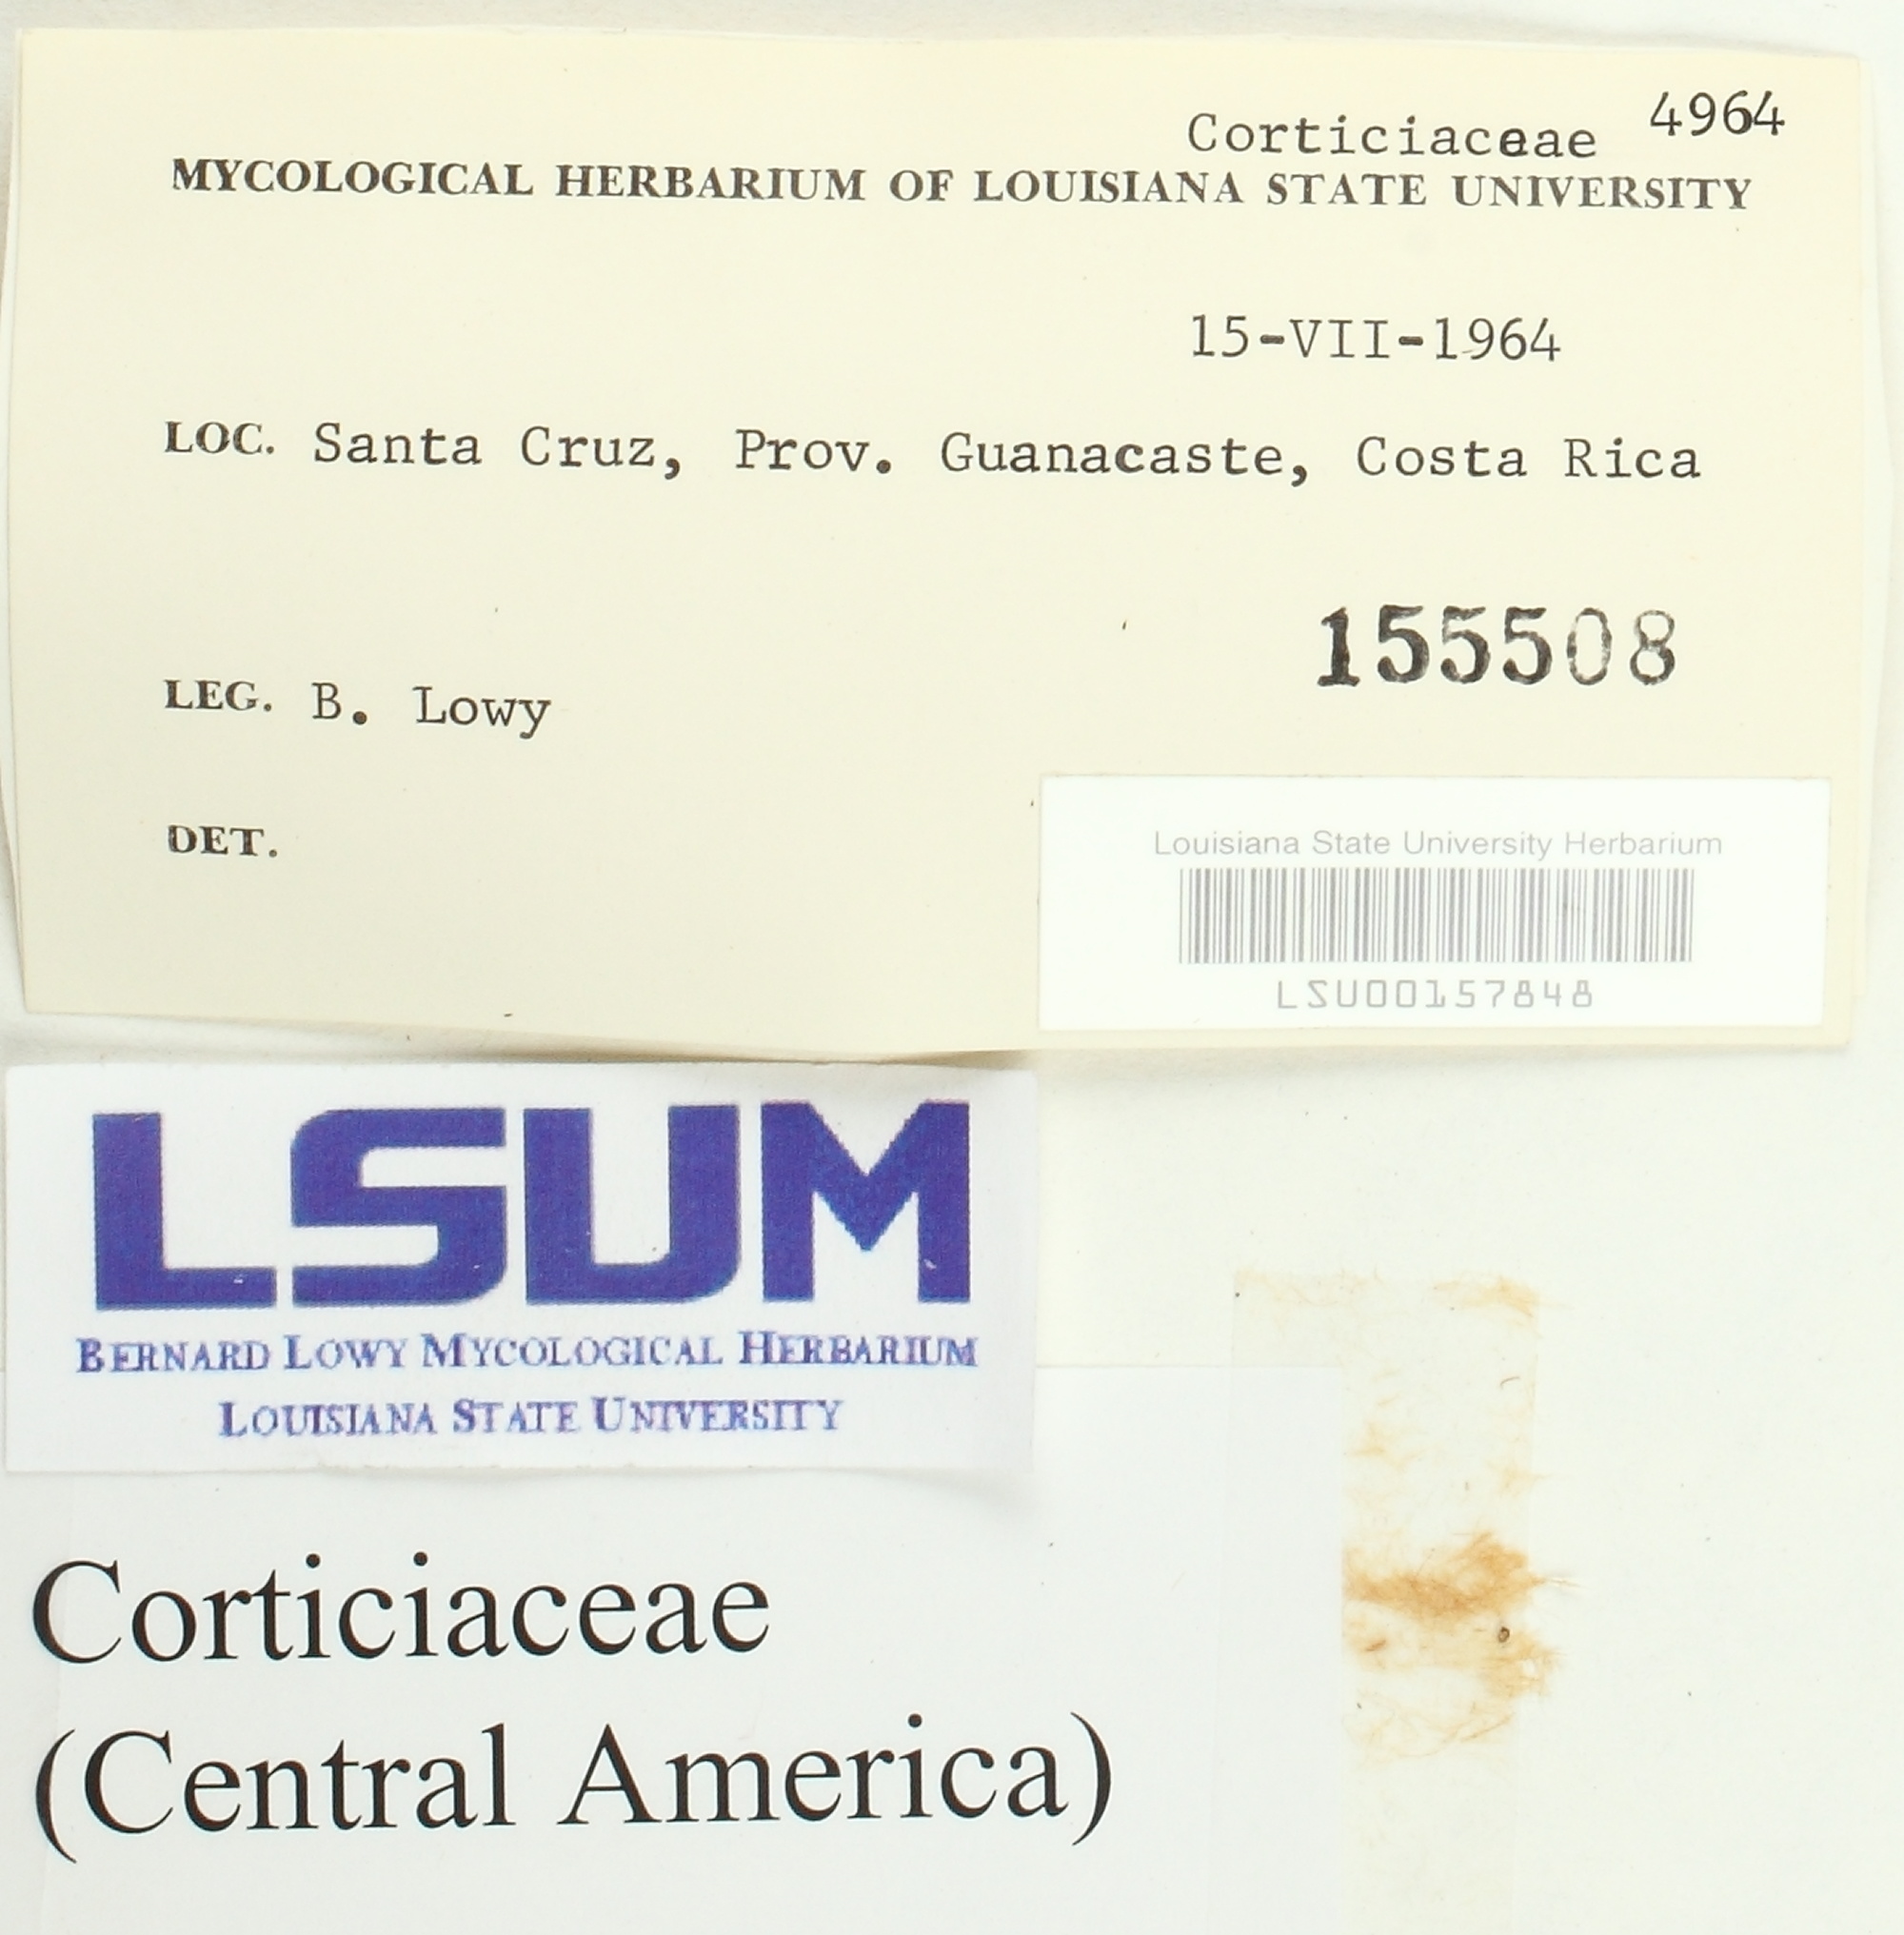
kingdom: Fungi
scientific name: Fungi
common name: Fungi
